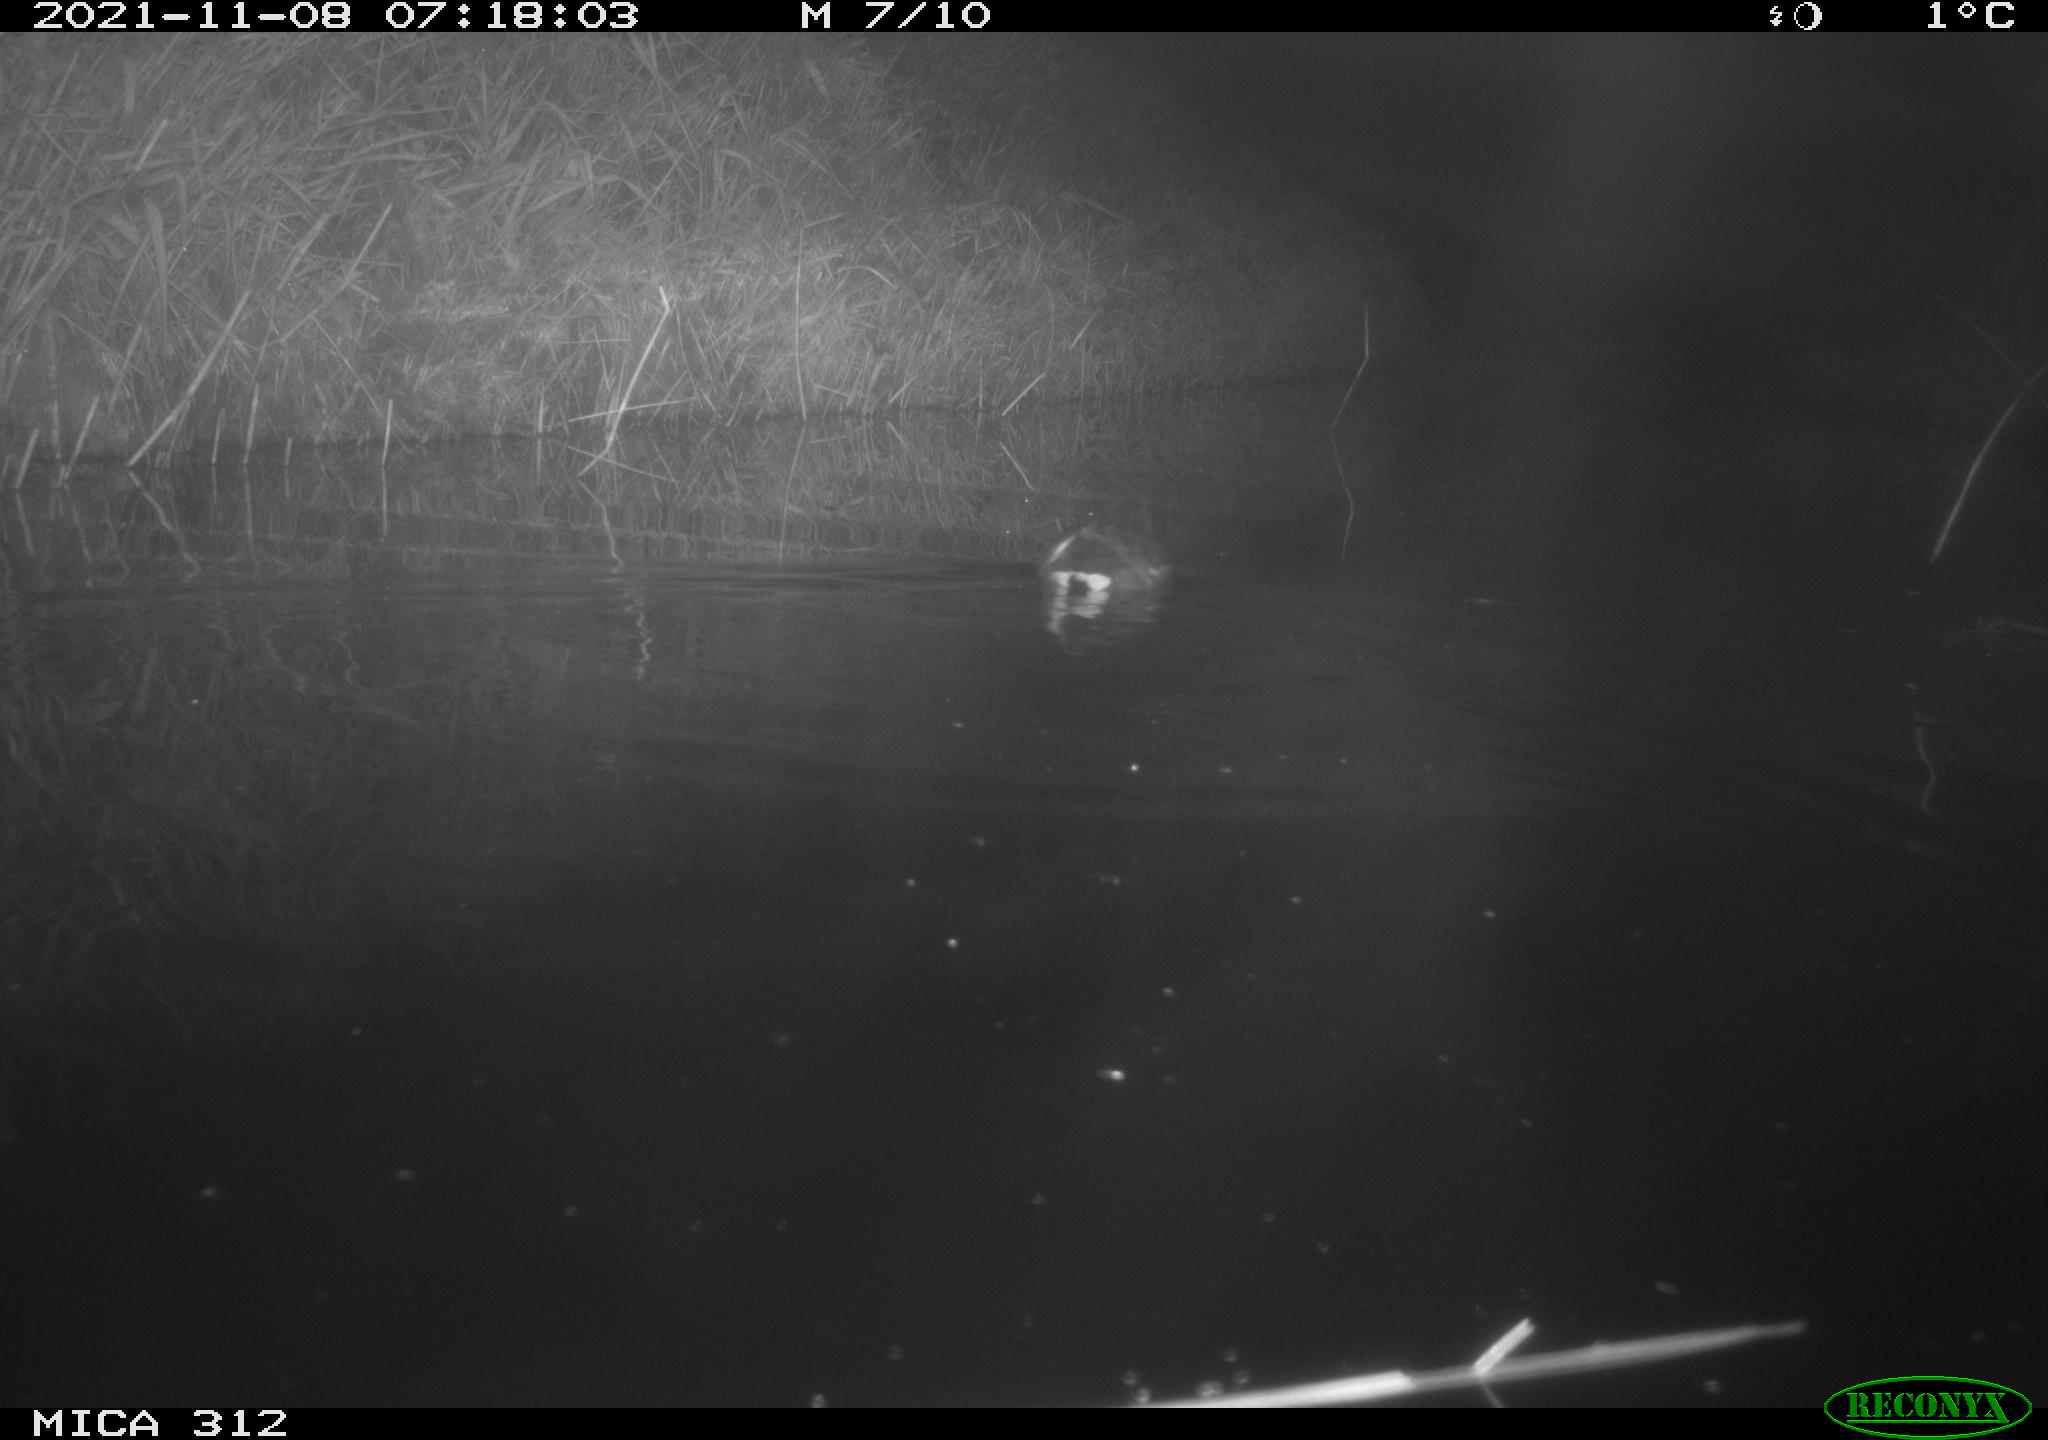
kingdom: Animalia
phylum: Chordata
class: Aves
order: Gruiformes
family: Rallidae
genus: Gallinula
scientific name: Gallinula chloropus
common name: Common moorhen
